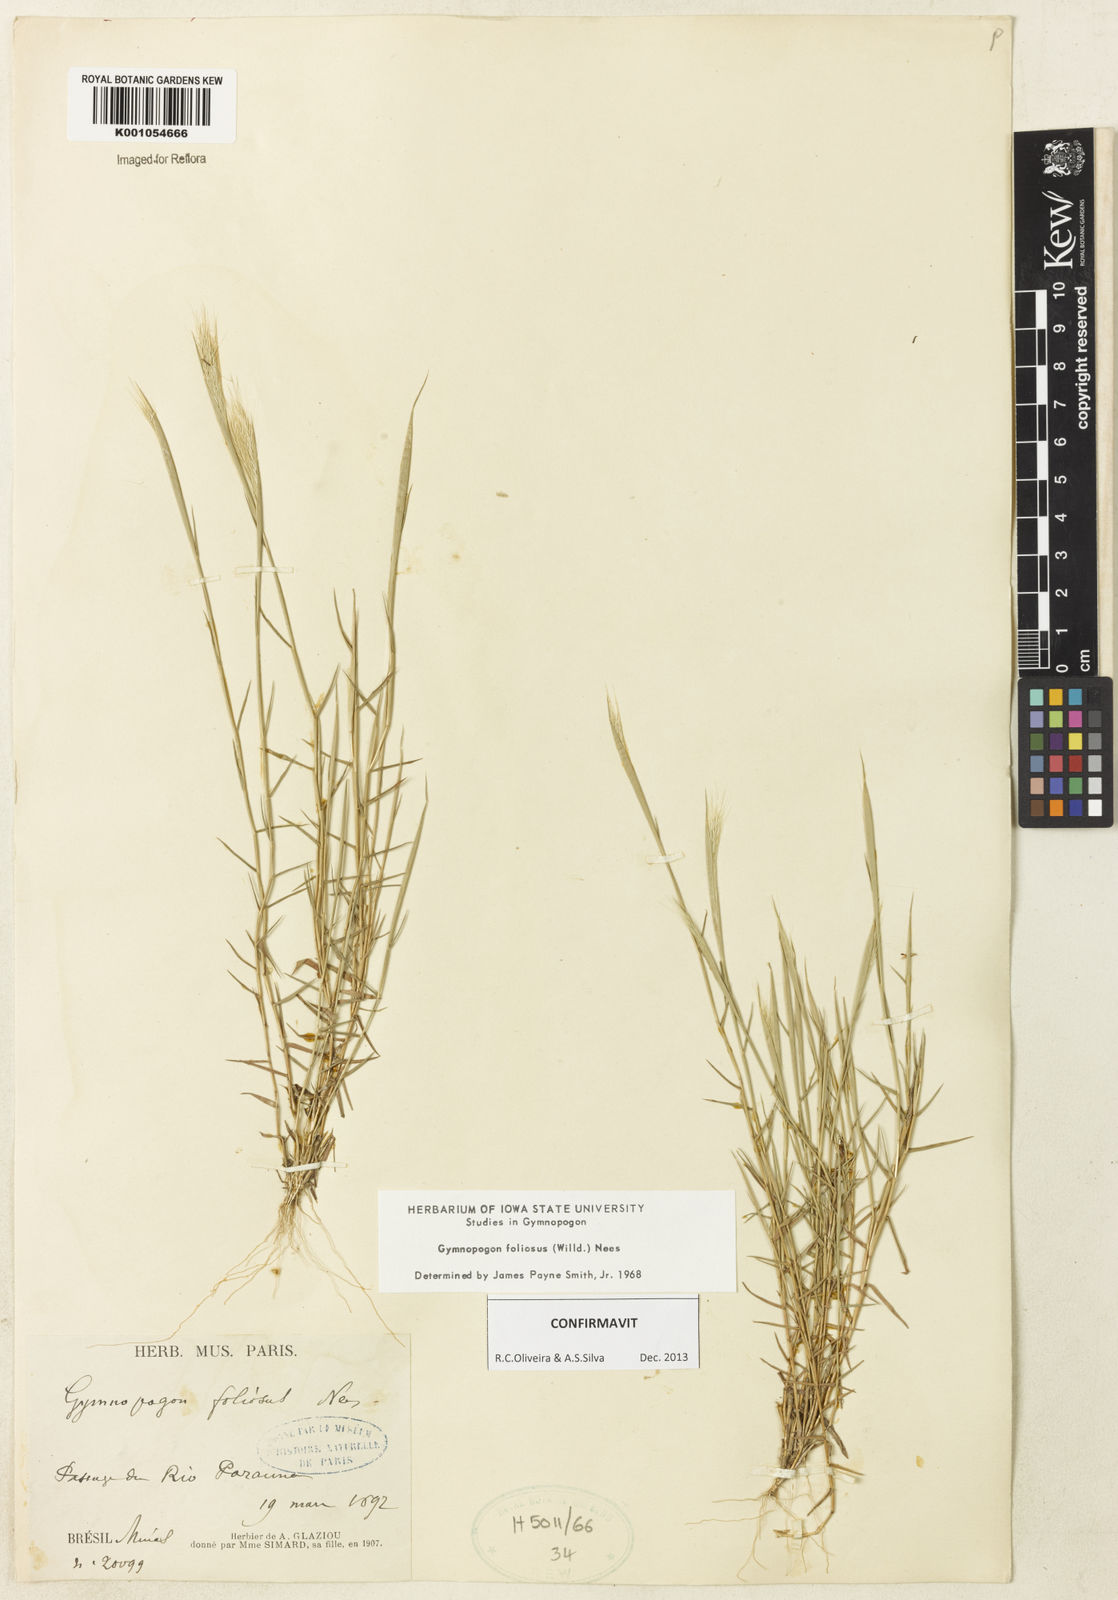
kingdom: Plantae
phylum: Tracheophyta
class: Liliopsida
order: Poales
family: Poaceae
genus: Gymnopogon
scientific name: Gymnopogon foliosus
